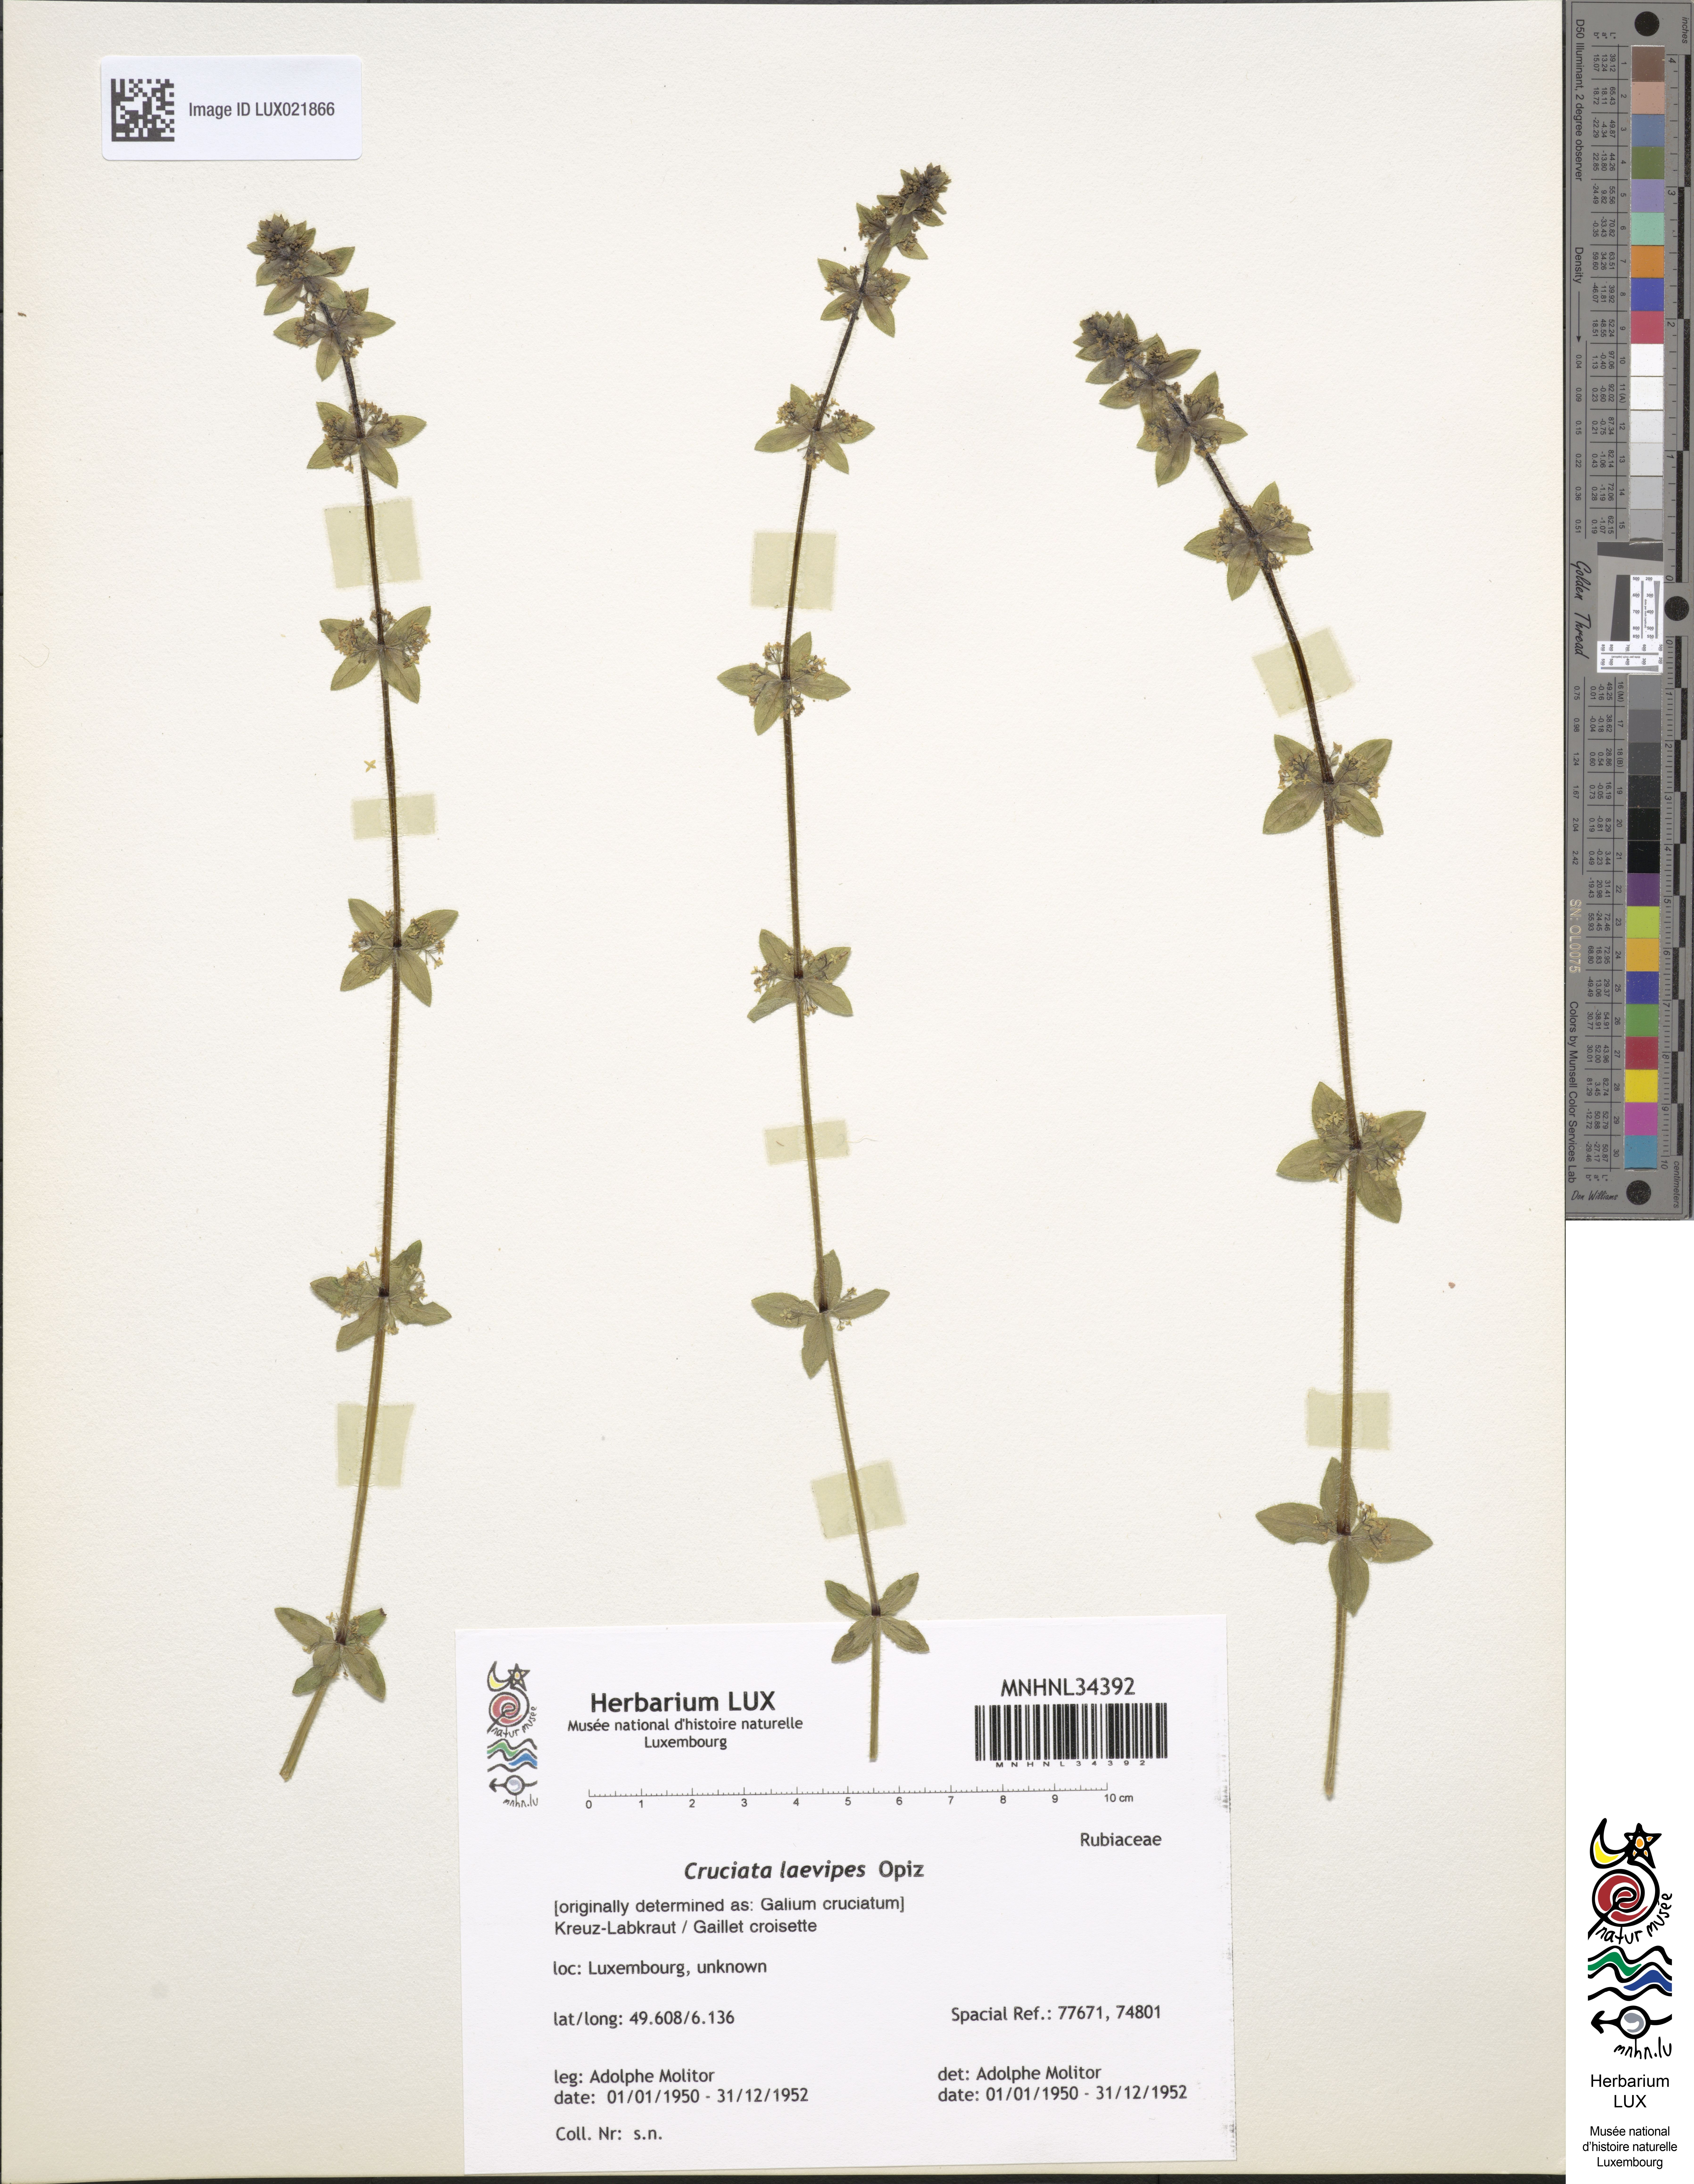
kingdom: Plantae
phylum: Tracheophyta
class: Magnoliopsida
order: Gentianales
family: Rubiaceae
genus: Cruciata
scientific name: Cruciata laevipes
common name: Crosswort
